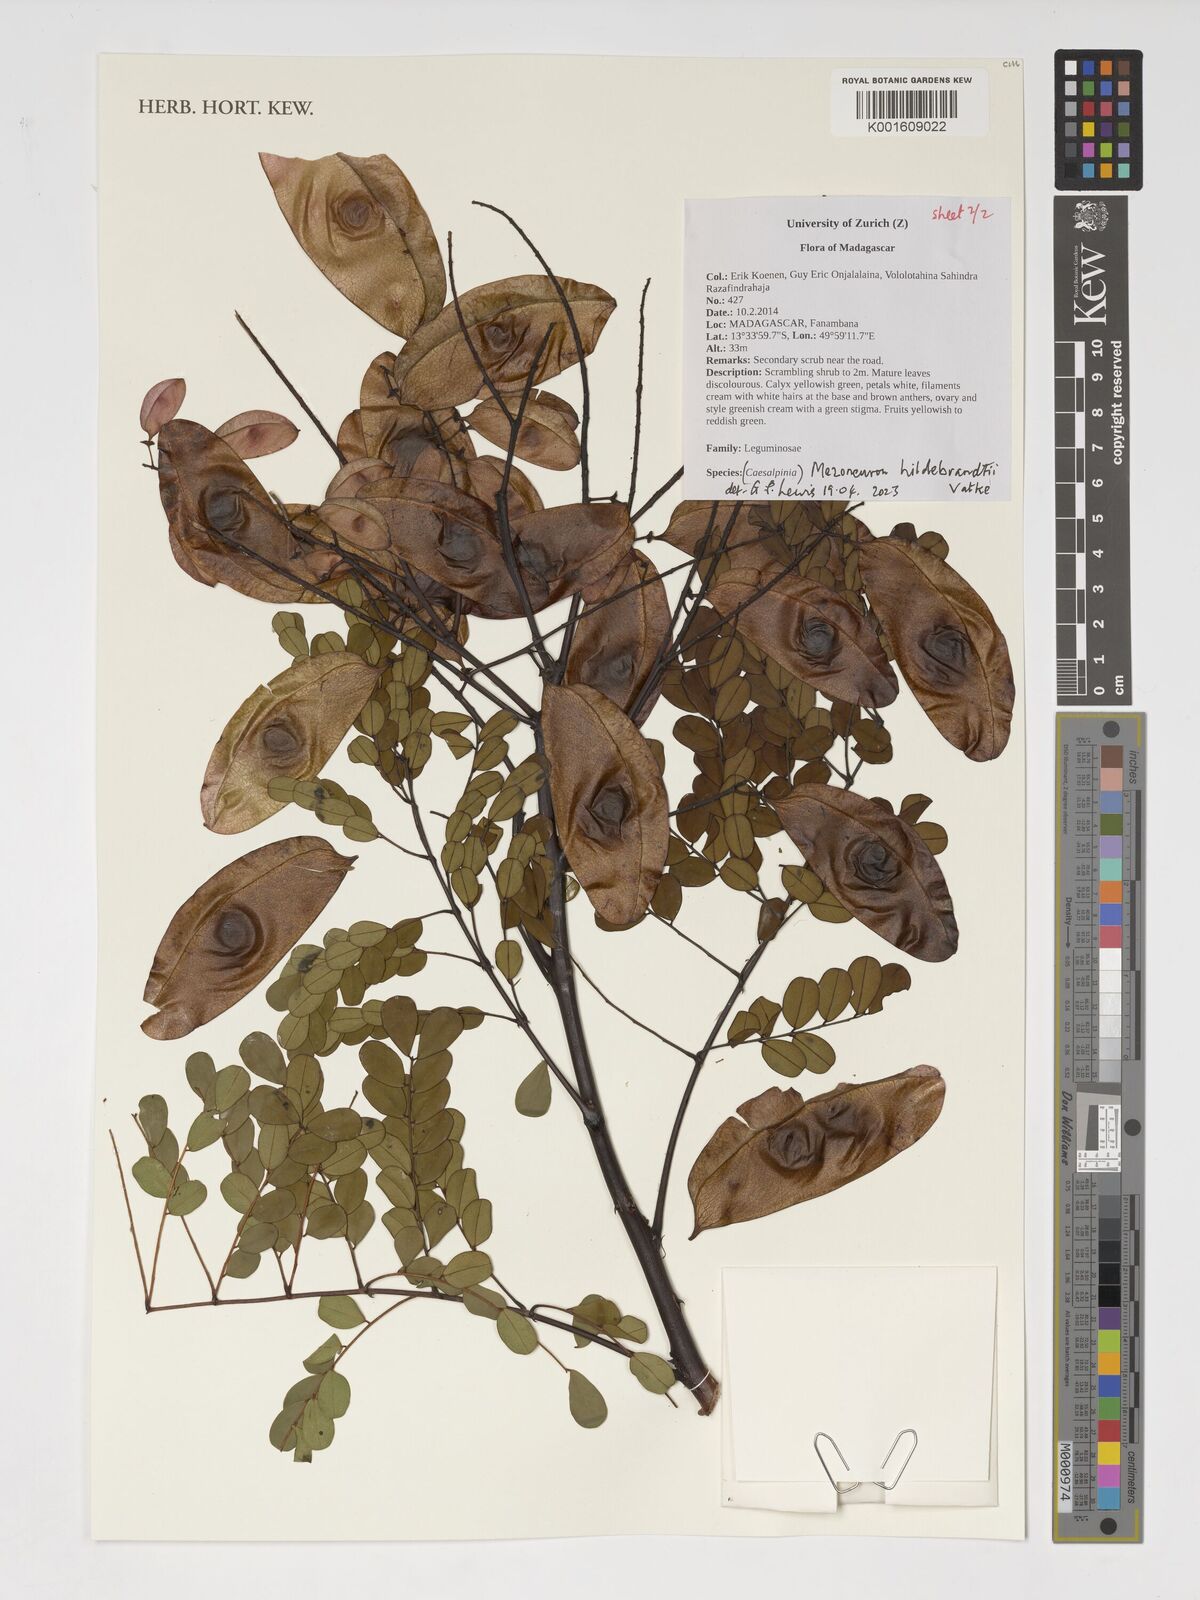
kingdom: Plantae
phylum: Tracheophyta
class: Magnoliopsida
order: Fabales
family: Fabaceae
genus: Mezoneuron
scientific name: Mezoneuron hildebrandtii
